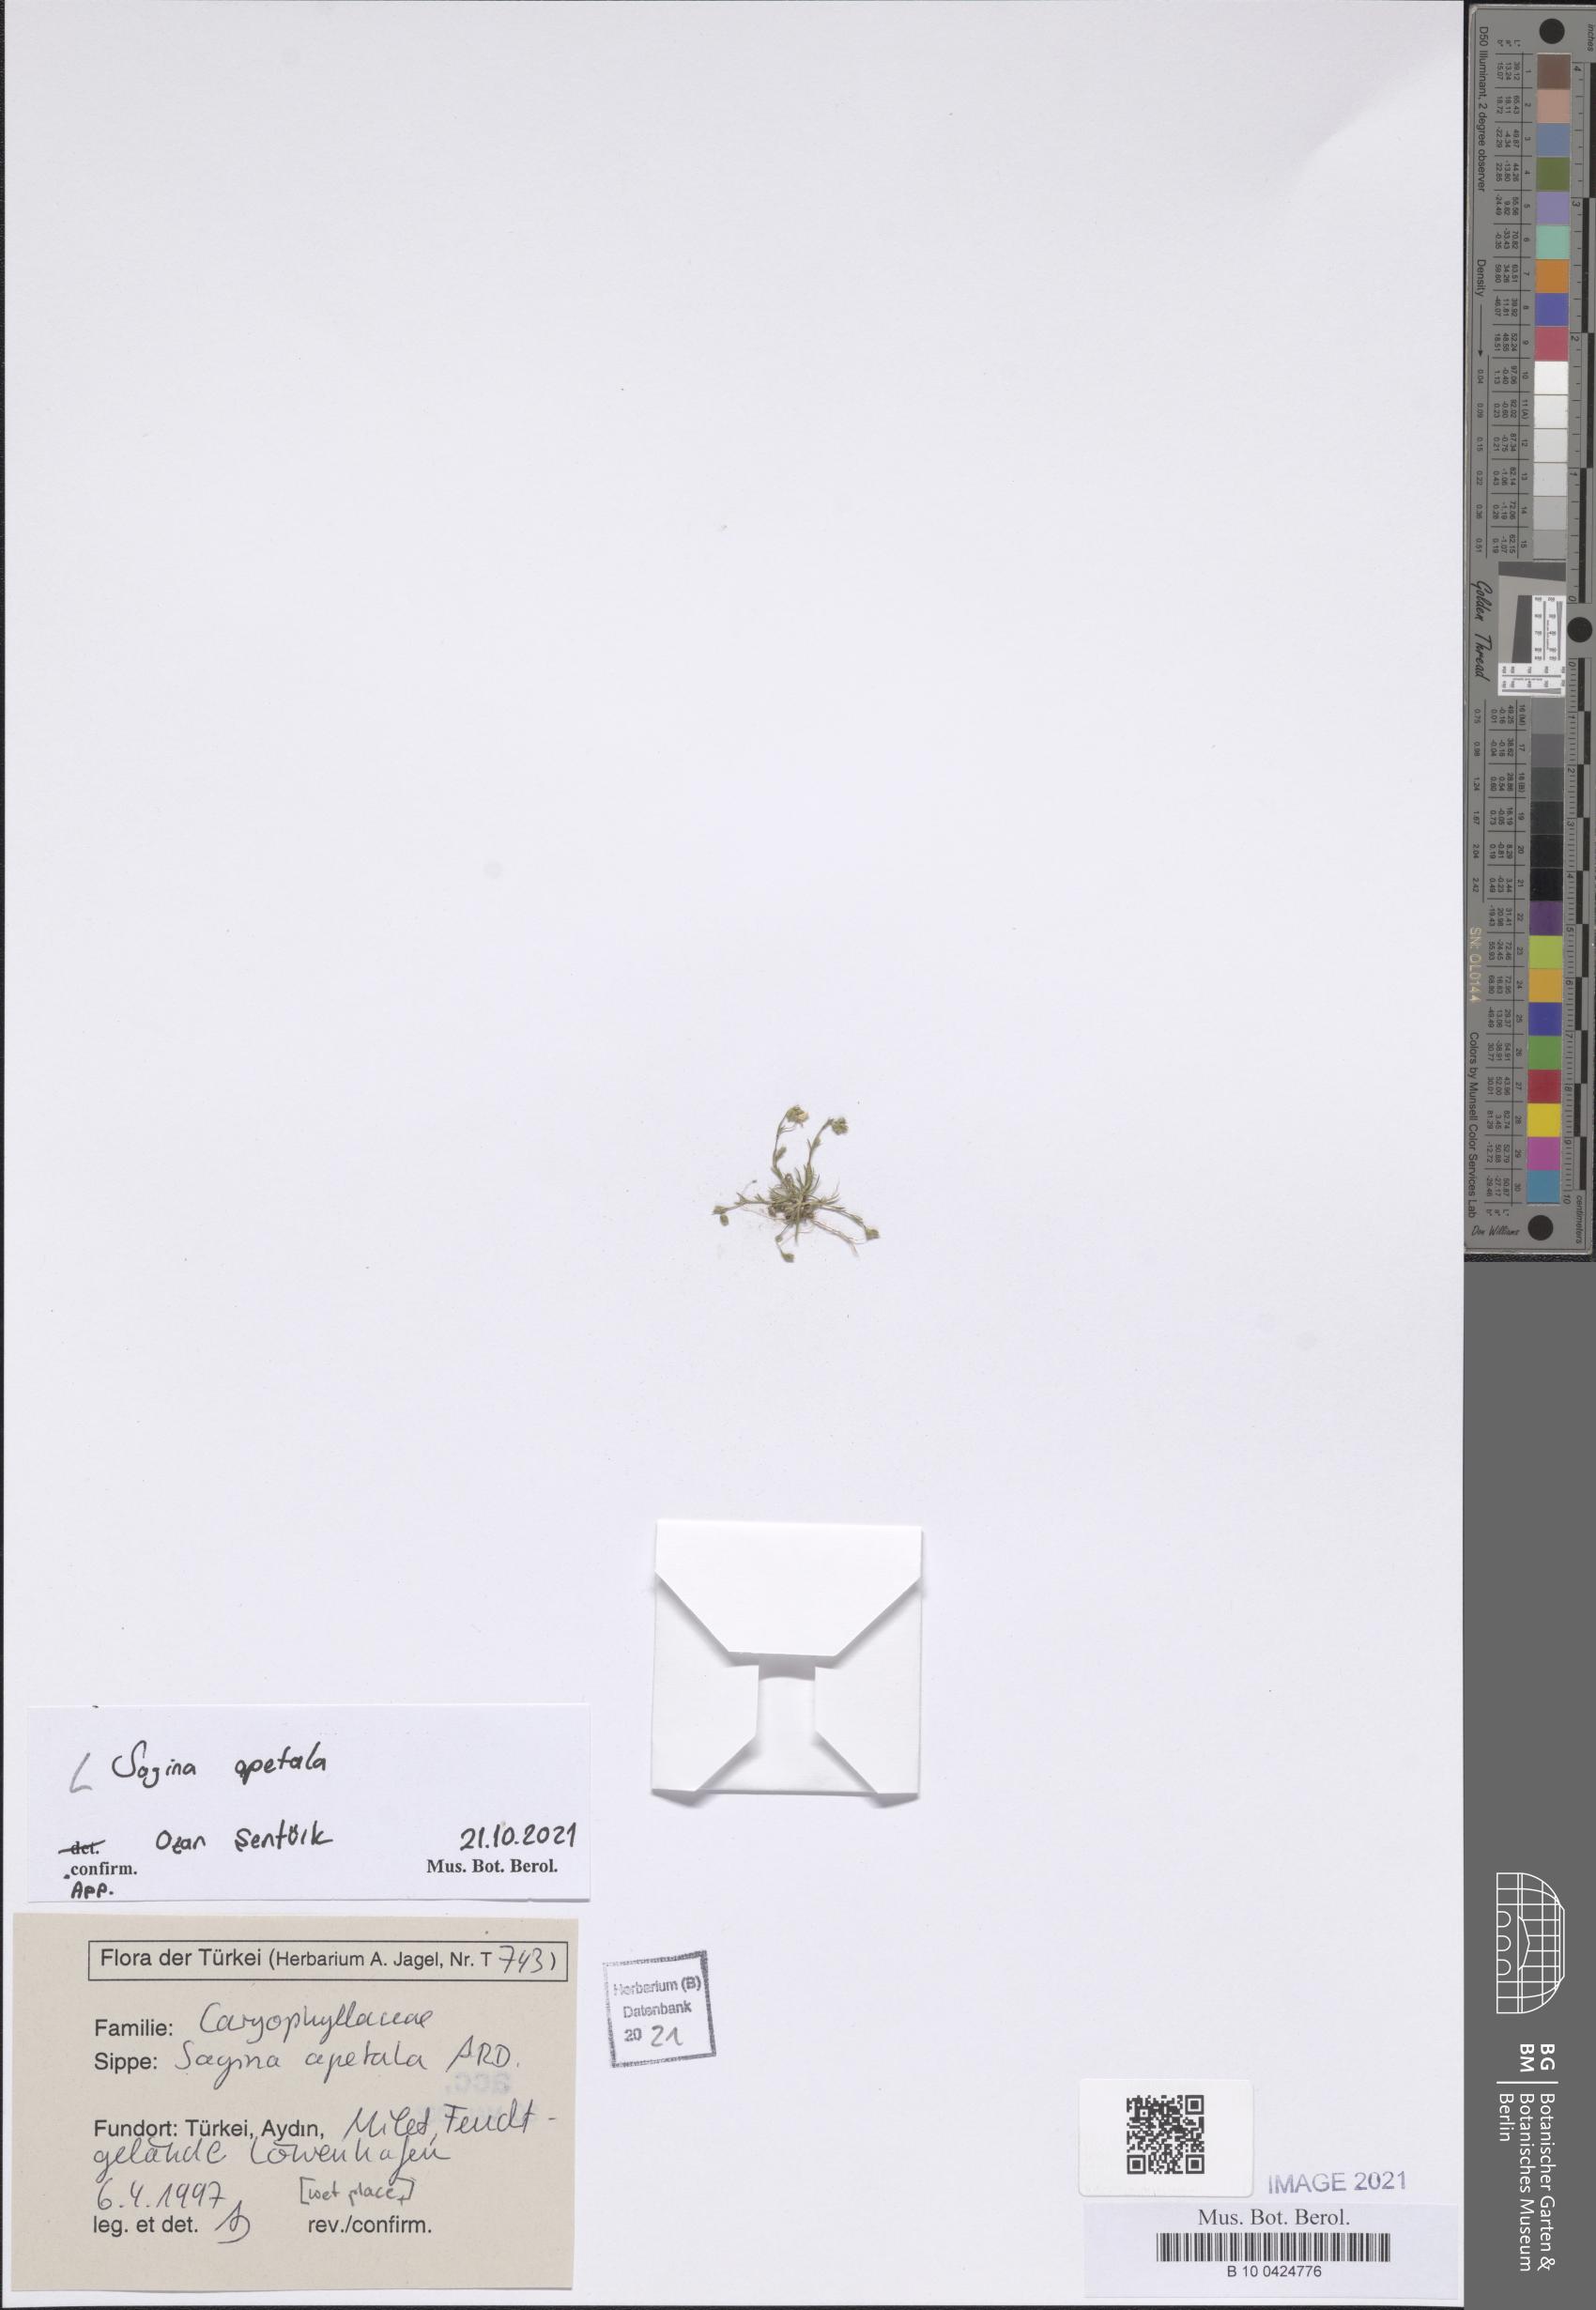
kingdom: Plantae
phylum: Tracheophyta
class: Magnoliopsida
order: Caryophyllales
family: Caryophyllaceae
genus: Sagina
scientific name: Sagina apetala
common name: Annual pearlwort
